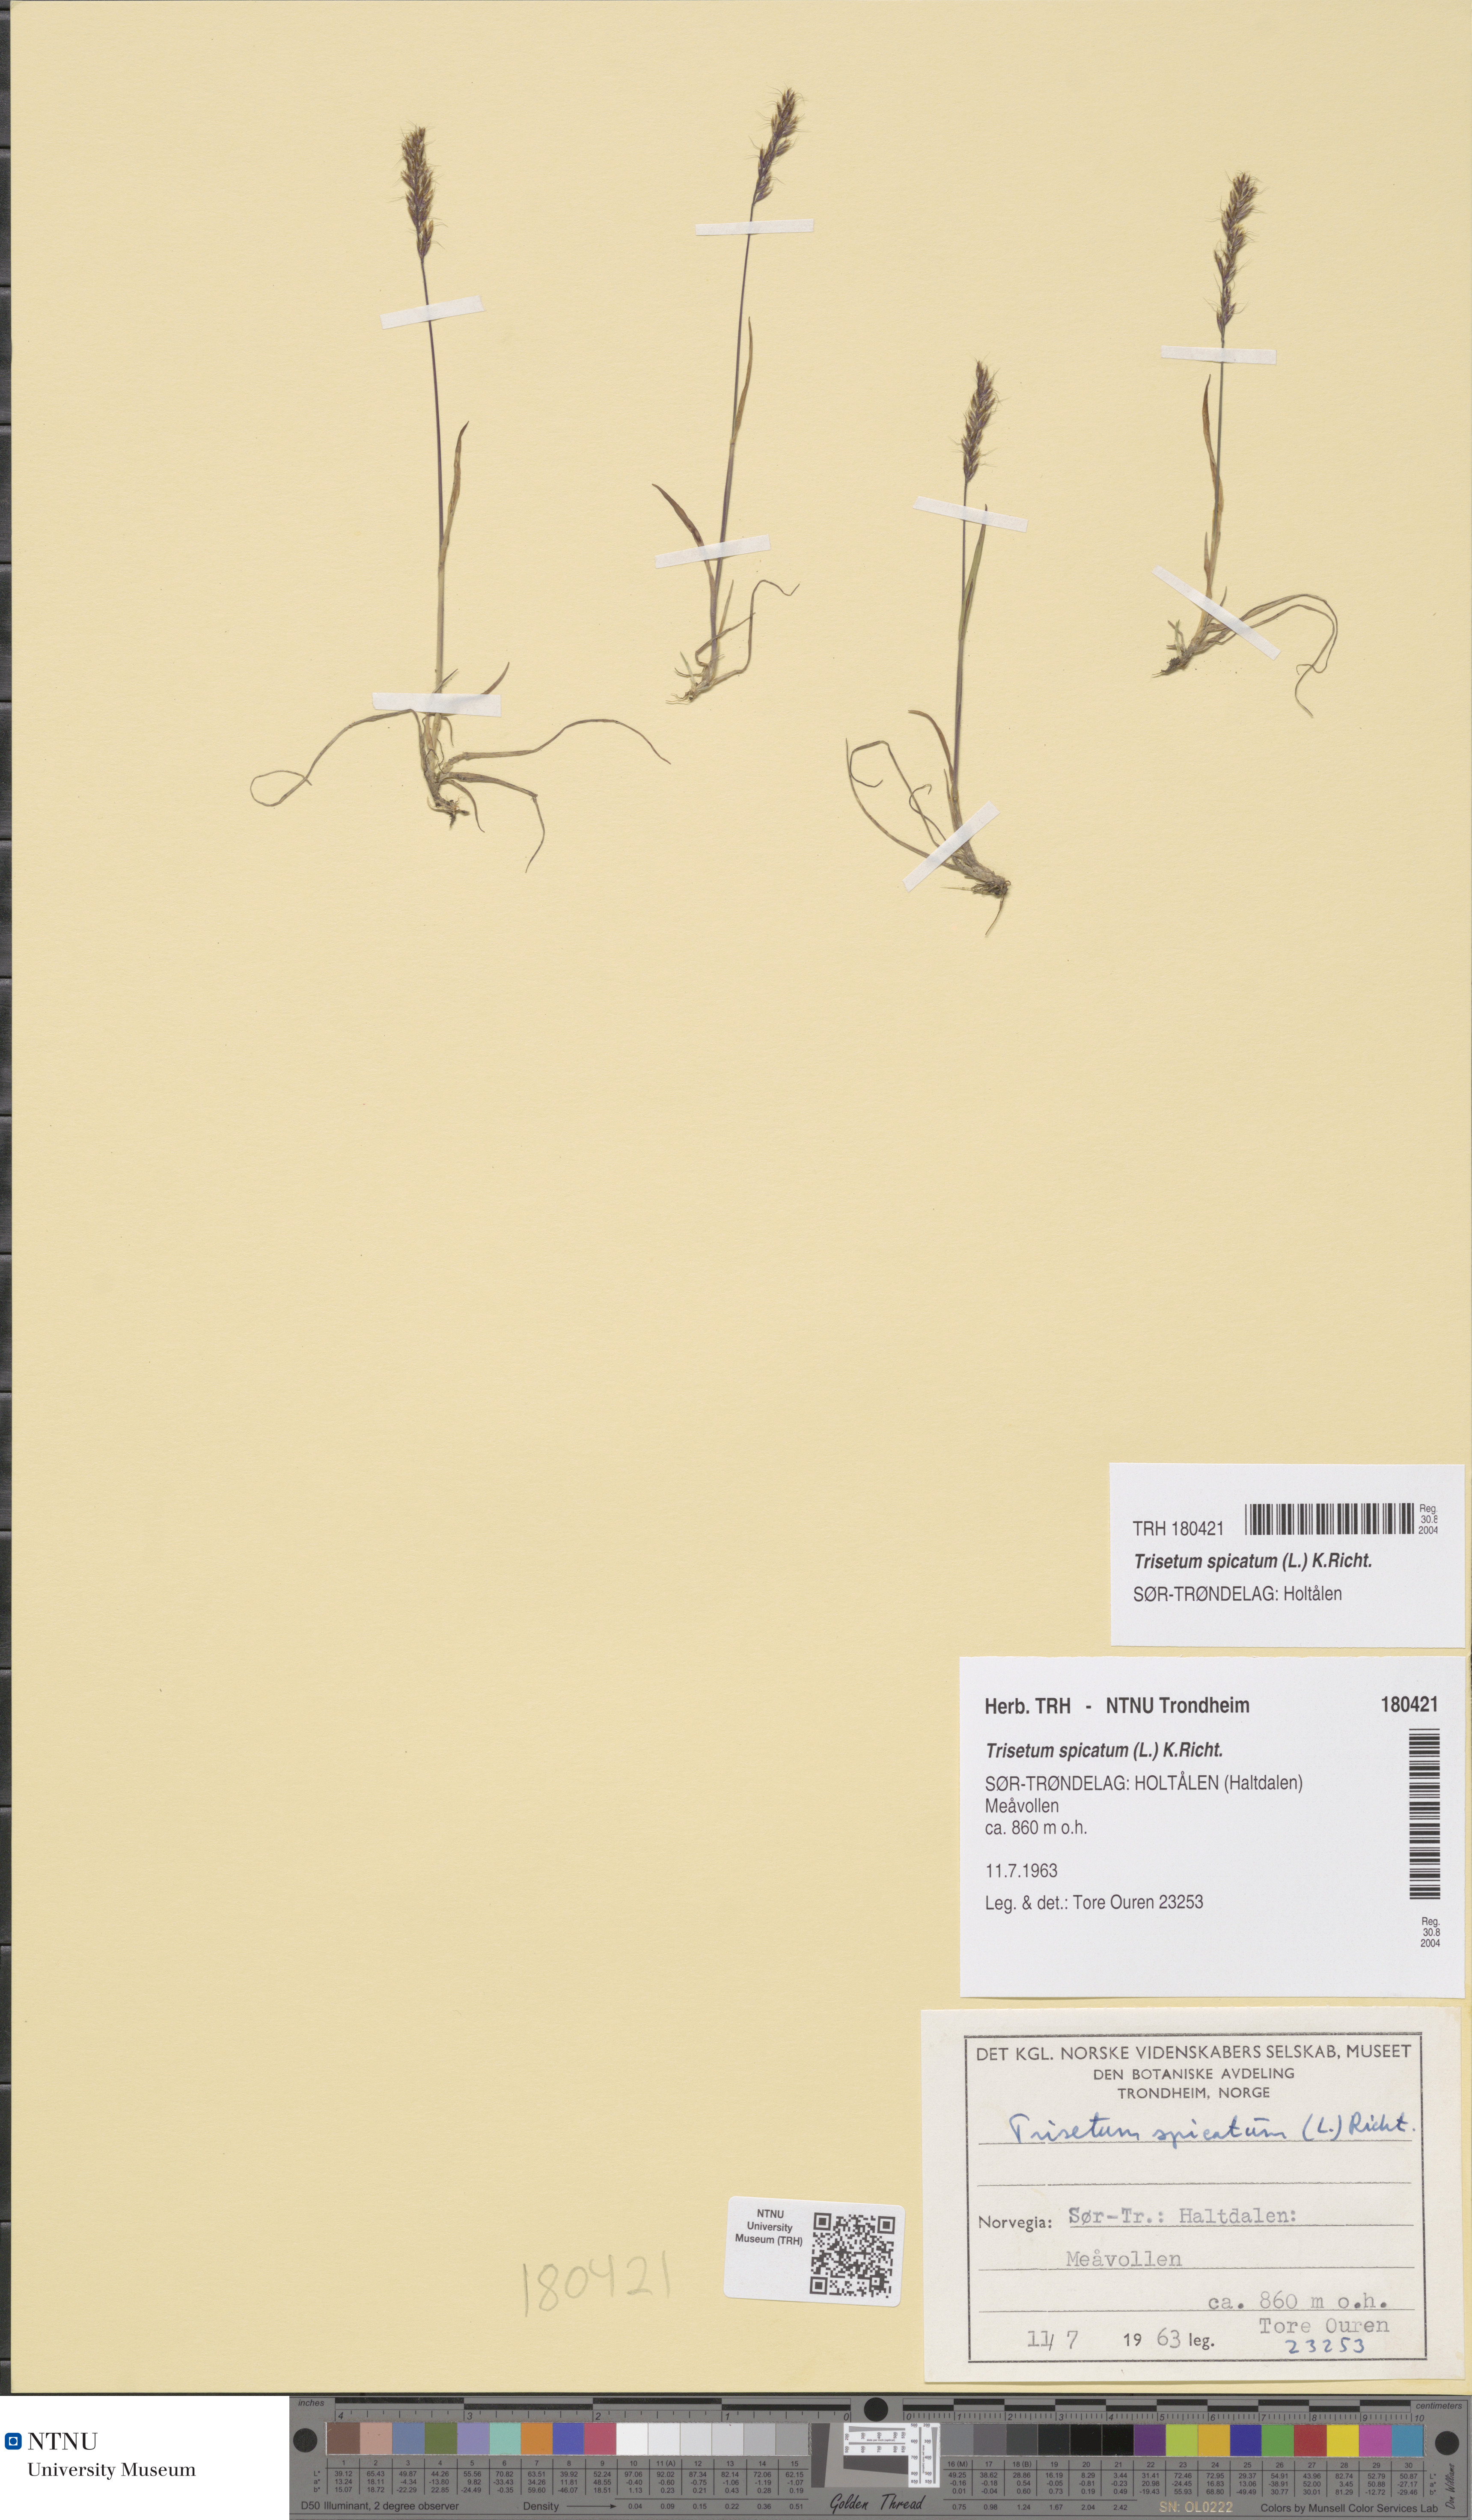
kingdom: Plantae
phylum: Tracheophyta
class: Liliopsida
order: Poales
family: Poaceae
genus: Koeleria
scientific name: Koeleria spicata
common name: Mountain trisetum
